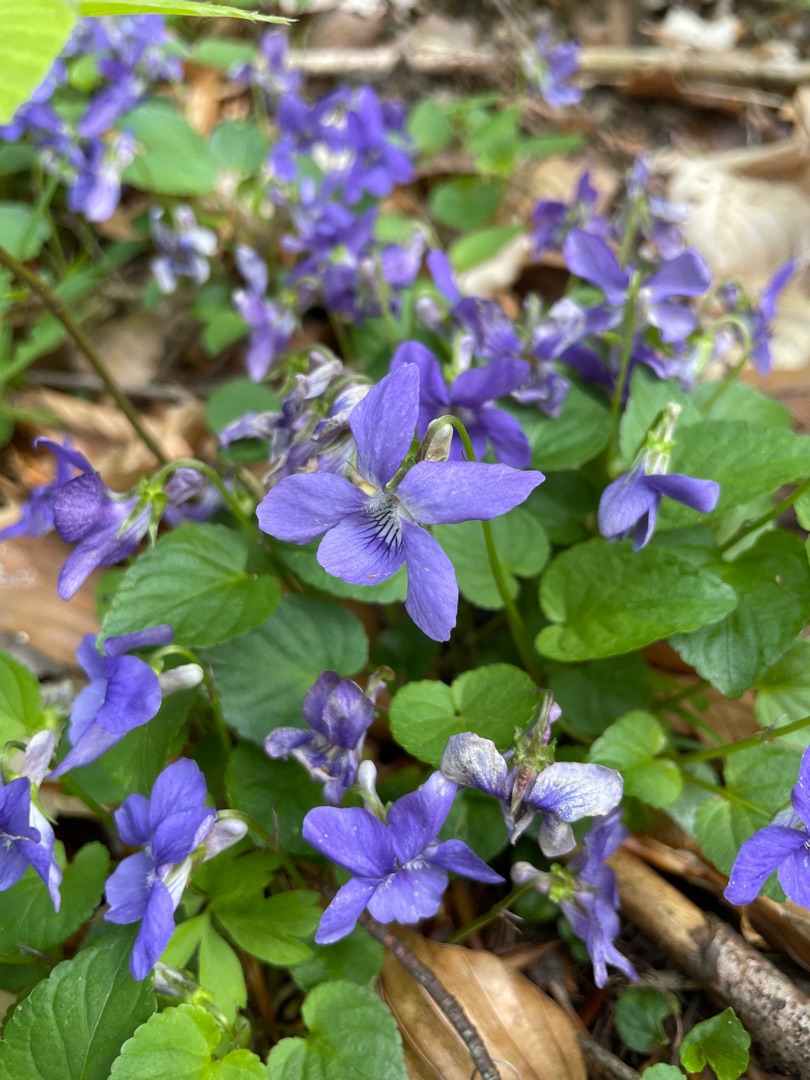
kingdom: Plantae
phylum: Tracheophyta
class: Magnoliopsida
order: Malpighiales
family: Violaceae
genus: Viola
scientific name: Viola riviniana
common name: Krat-viol
